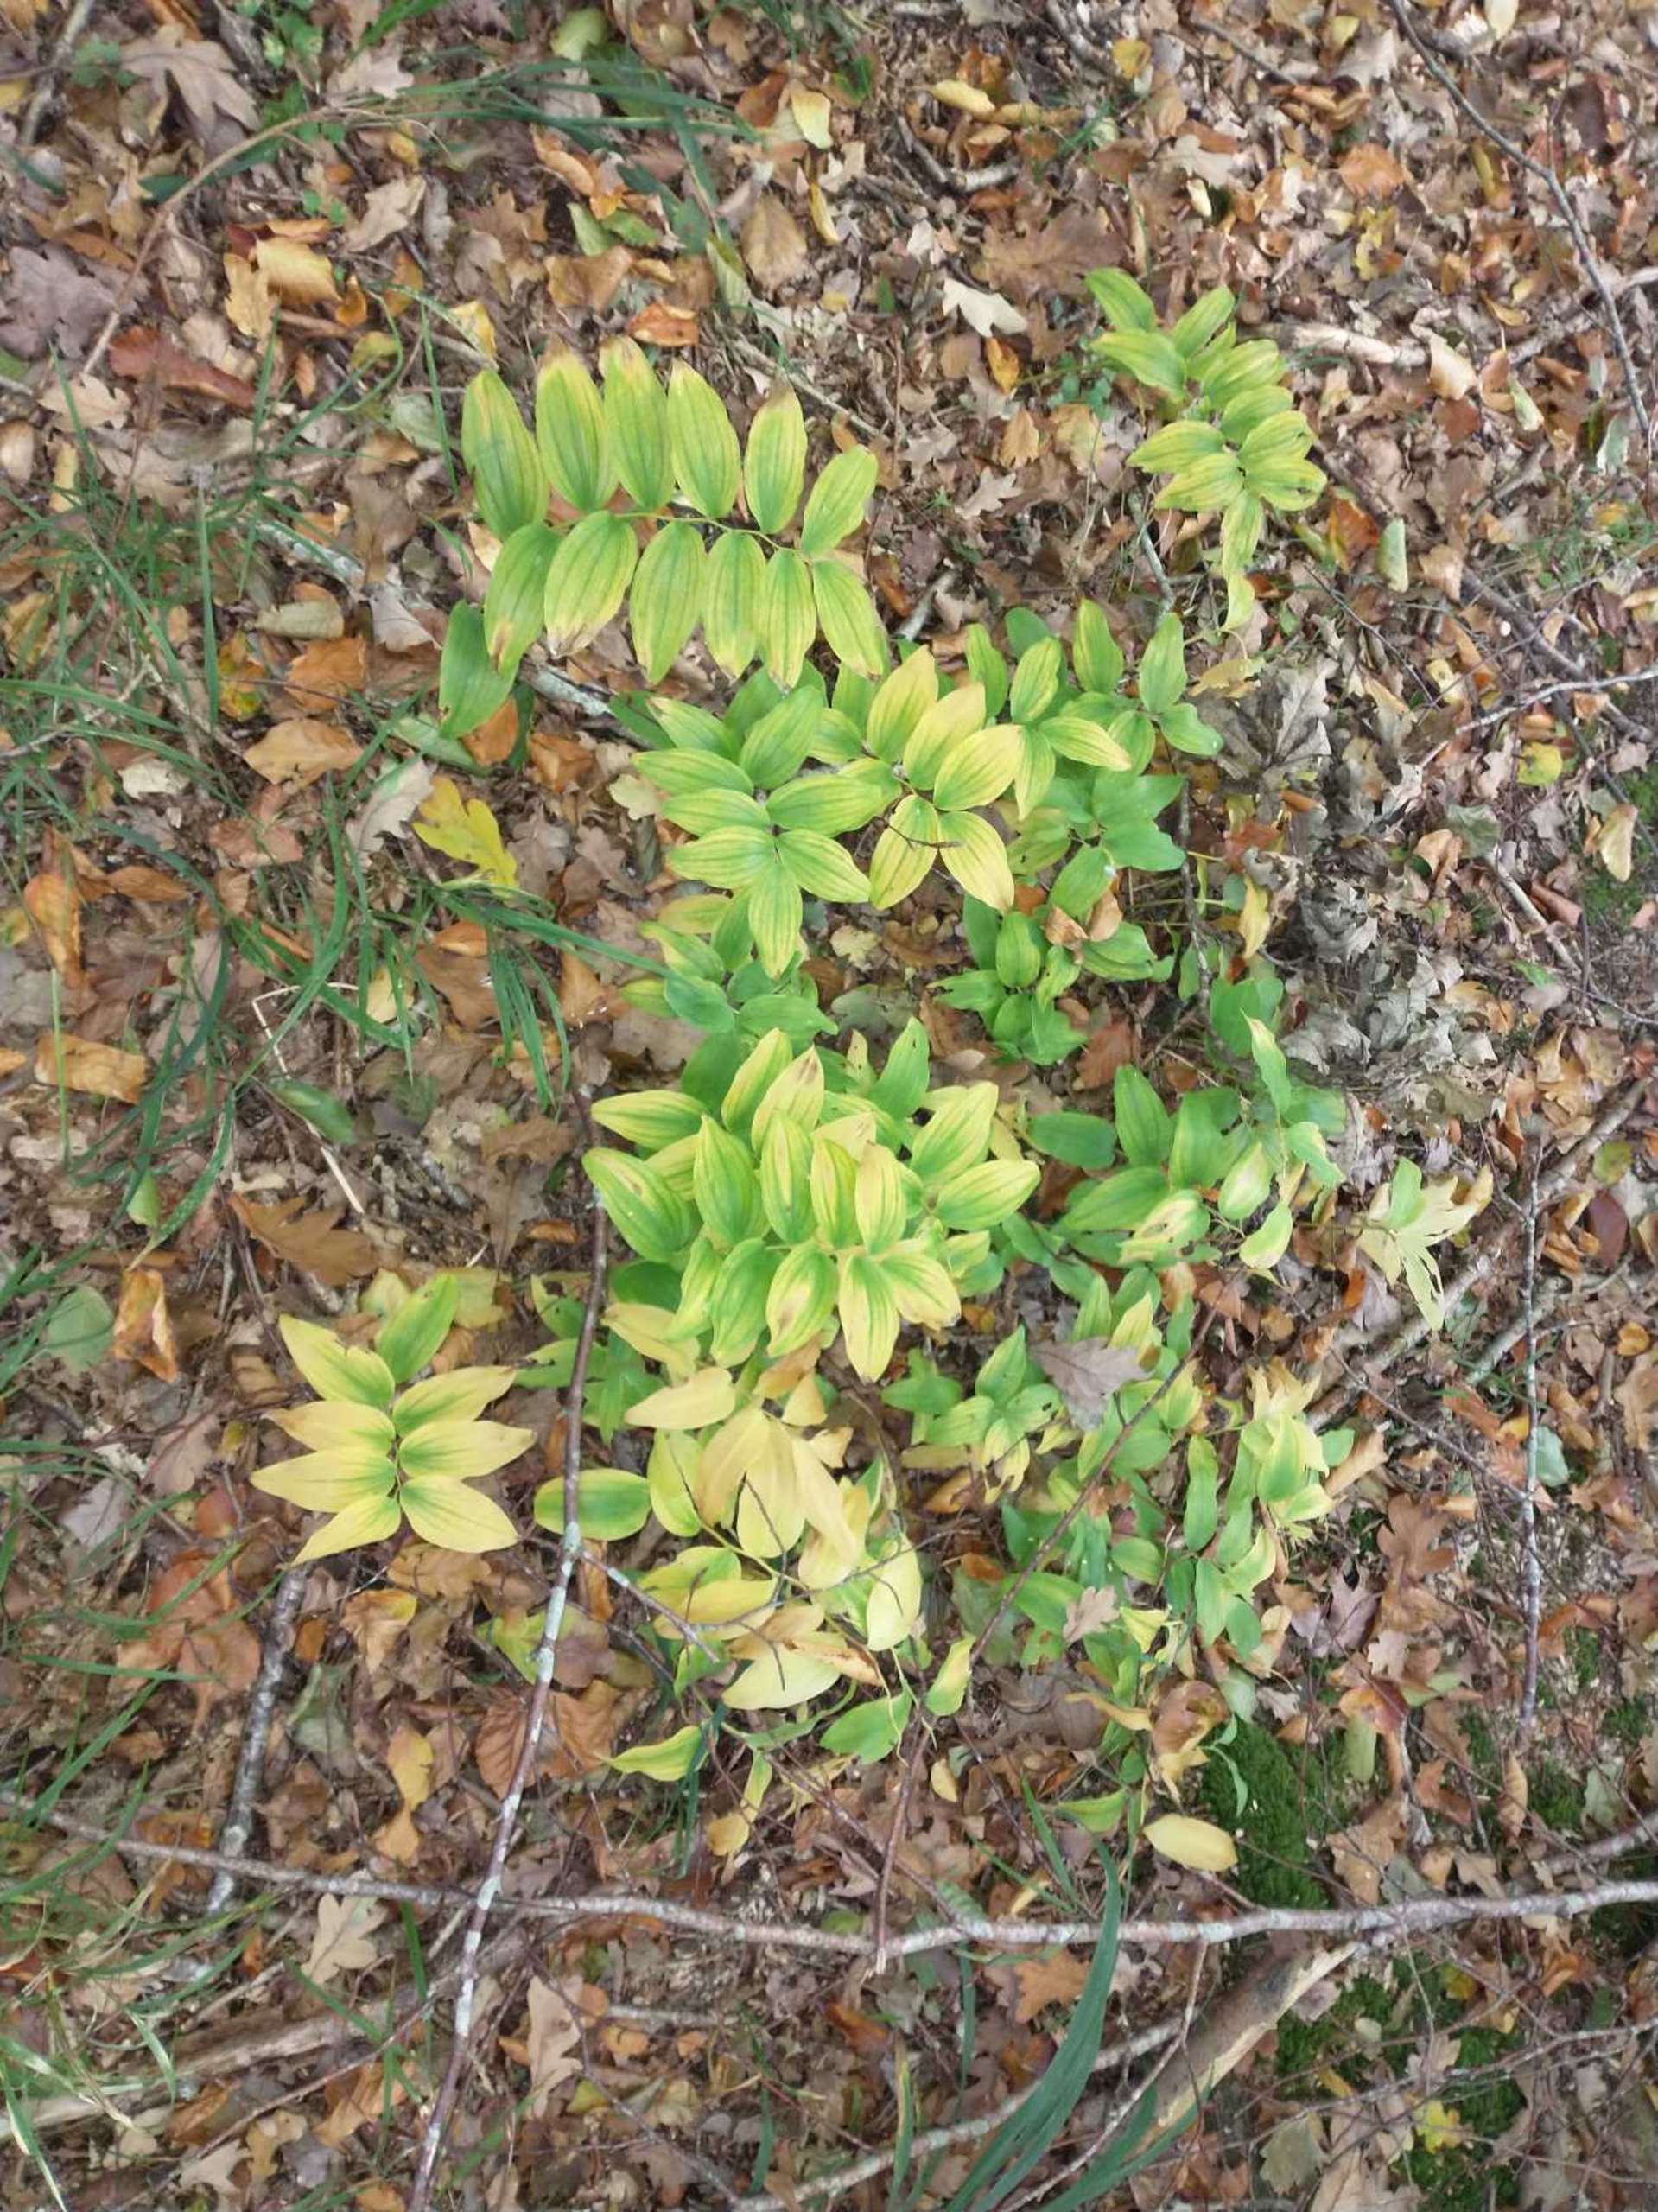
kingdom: Plantae
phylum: Tracheophyta
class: Liliopsida
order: Asparagales
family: Asparagaceae
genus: Polygonatum
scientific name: Polygonatum multiflorum
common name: Stor konval
